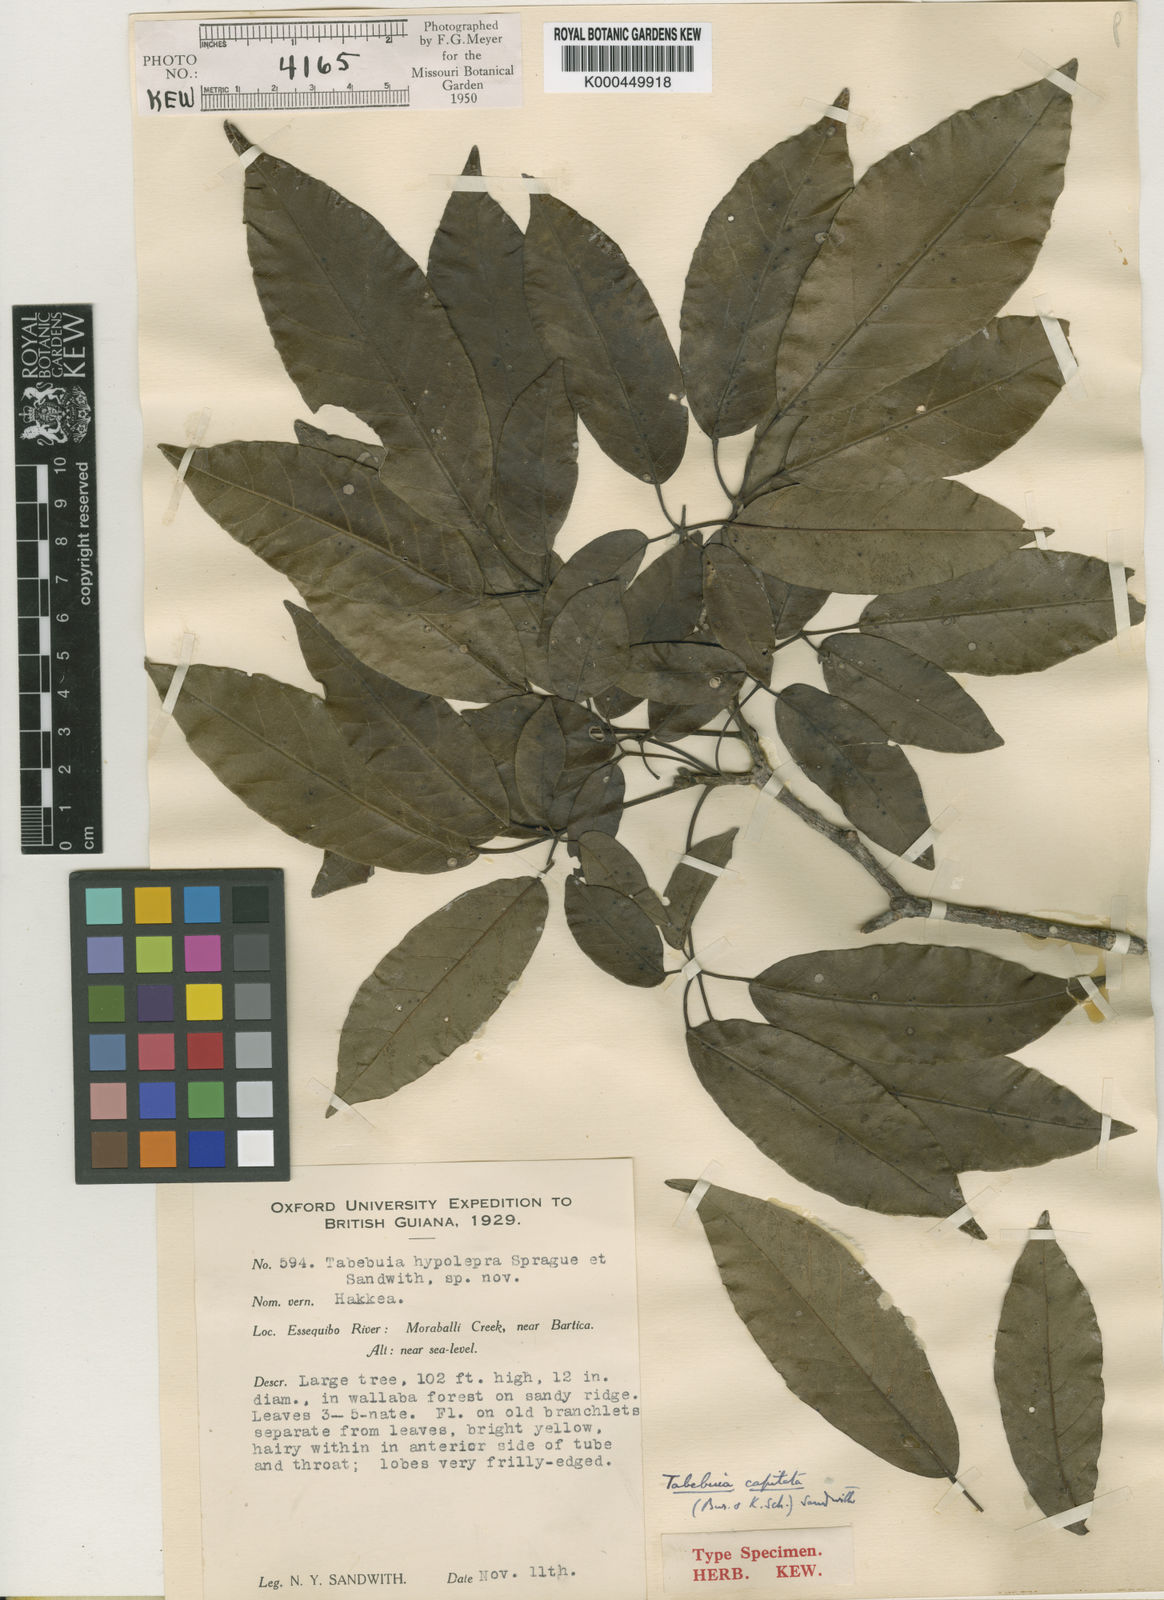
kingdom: Plantae
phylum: Tracheophyta
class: Magnoliopsida
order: Lamiales
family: Bignoniaceae
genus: Handroanthus
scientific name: Handroanthus capitatus
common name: Trumpet trees
